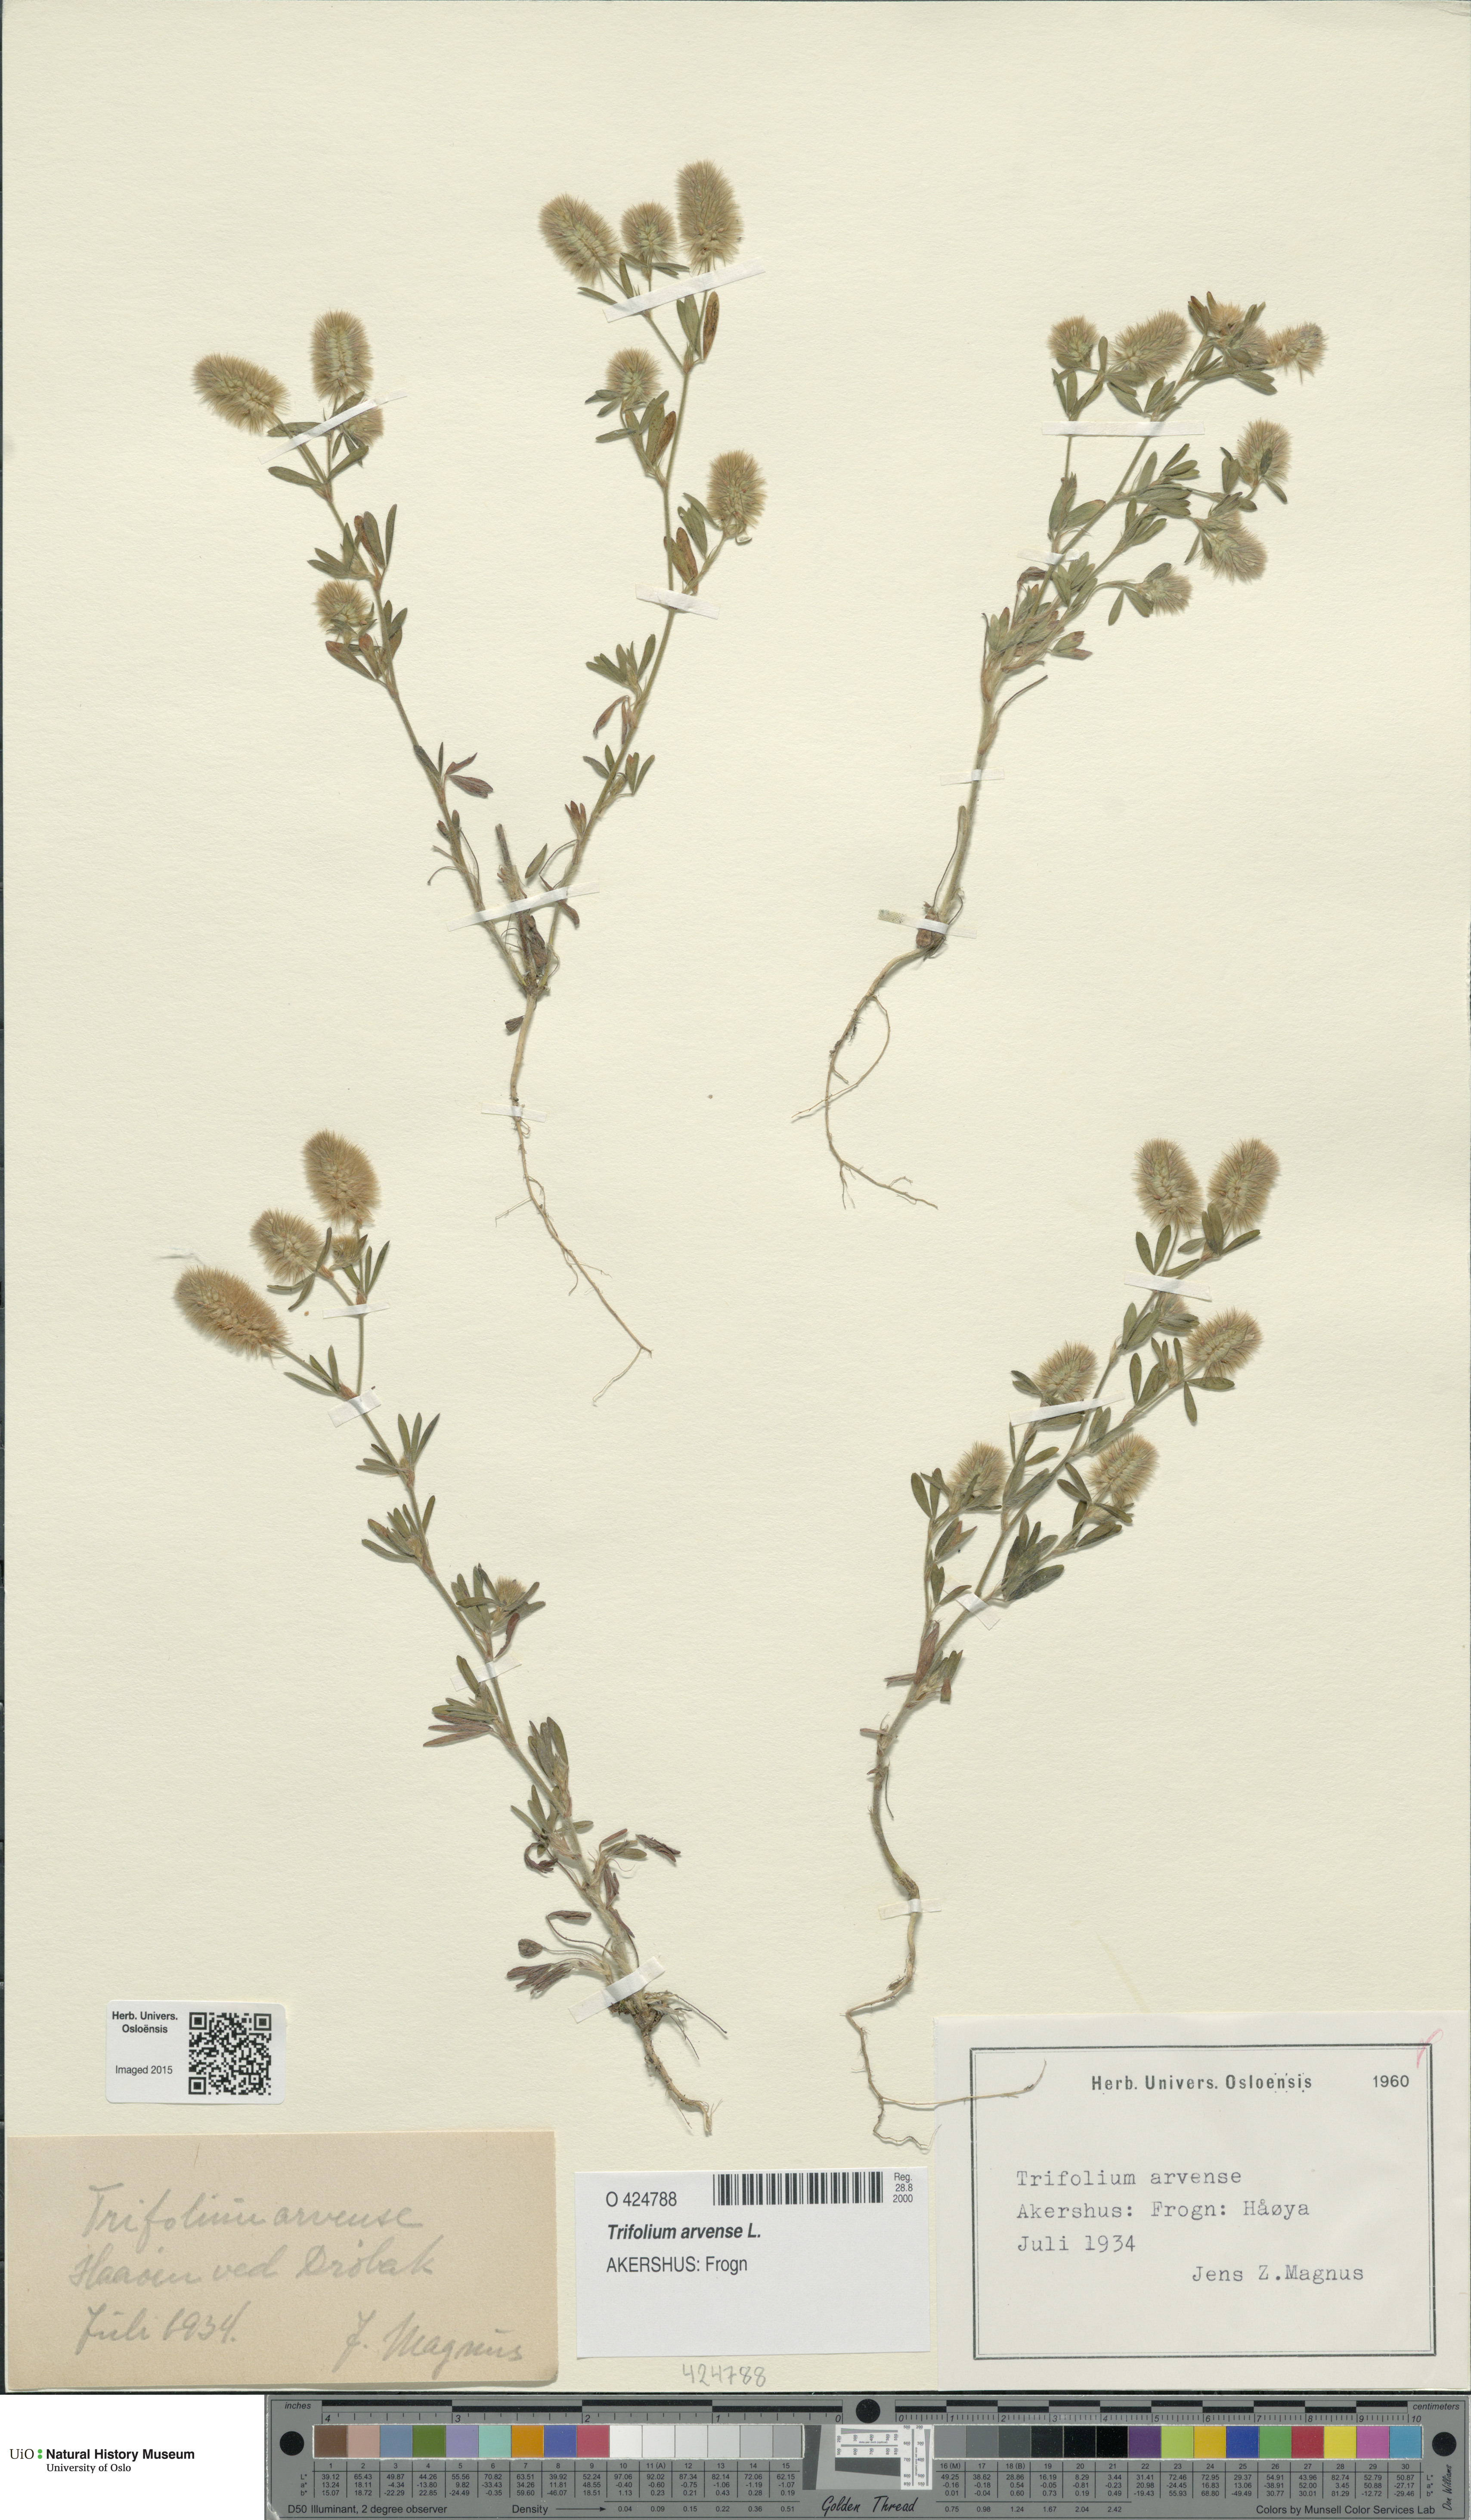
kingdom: Plantae
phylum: Tracheophyta
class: Magnoliopsida
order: Fabales
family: Fabaceae
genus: Trifolium
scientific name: Trifolium arvense
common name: Hare's-foot clover
